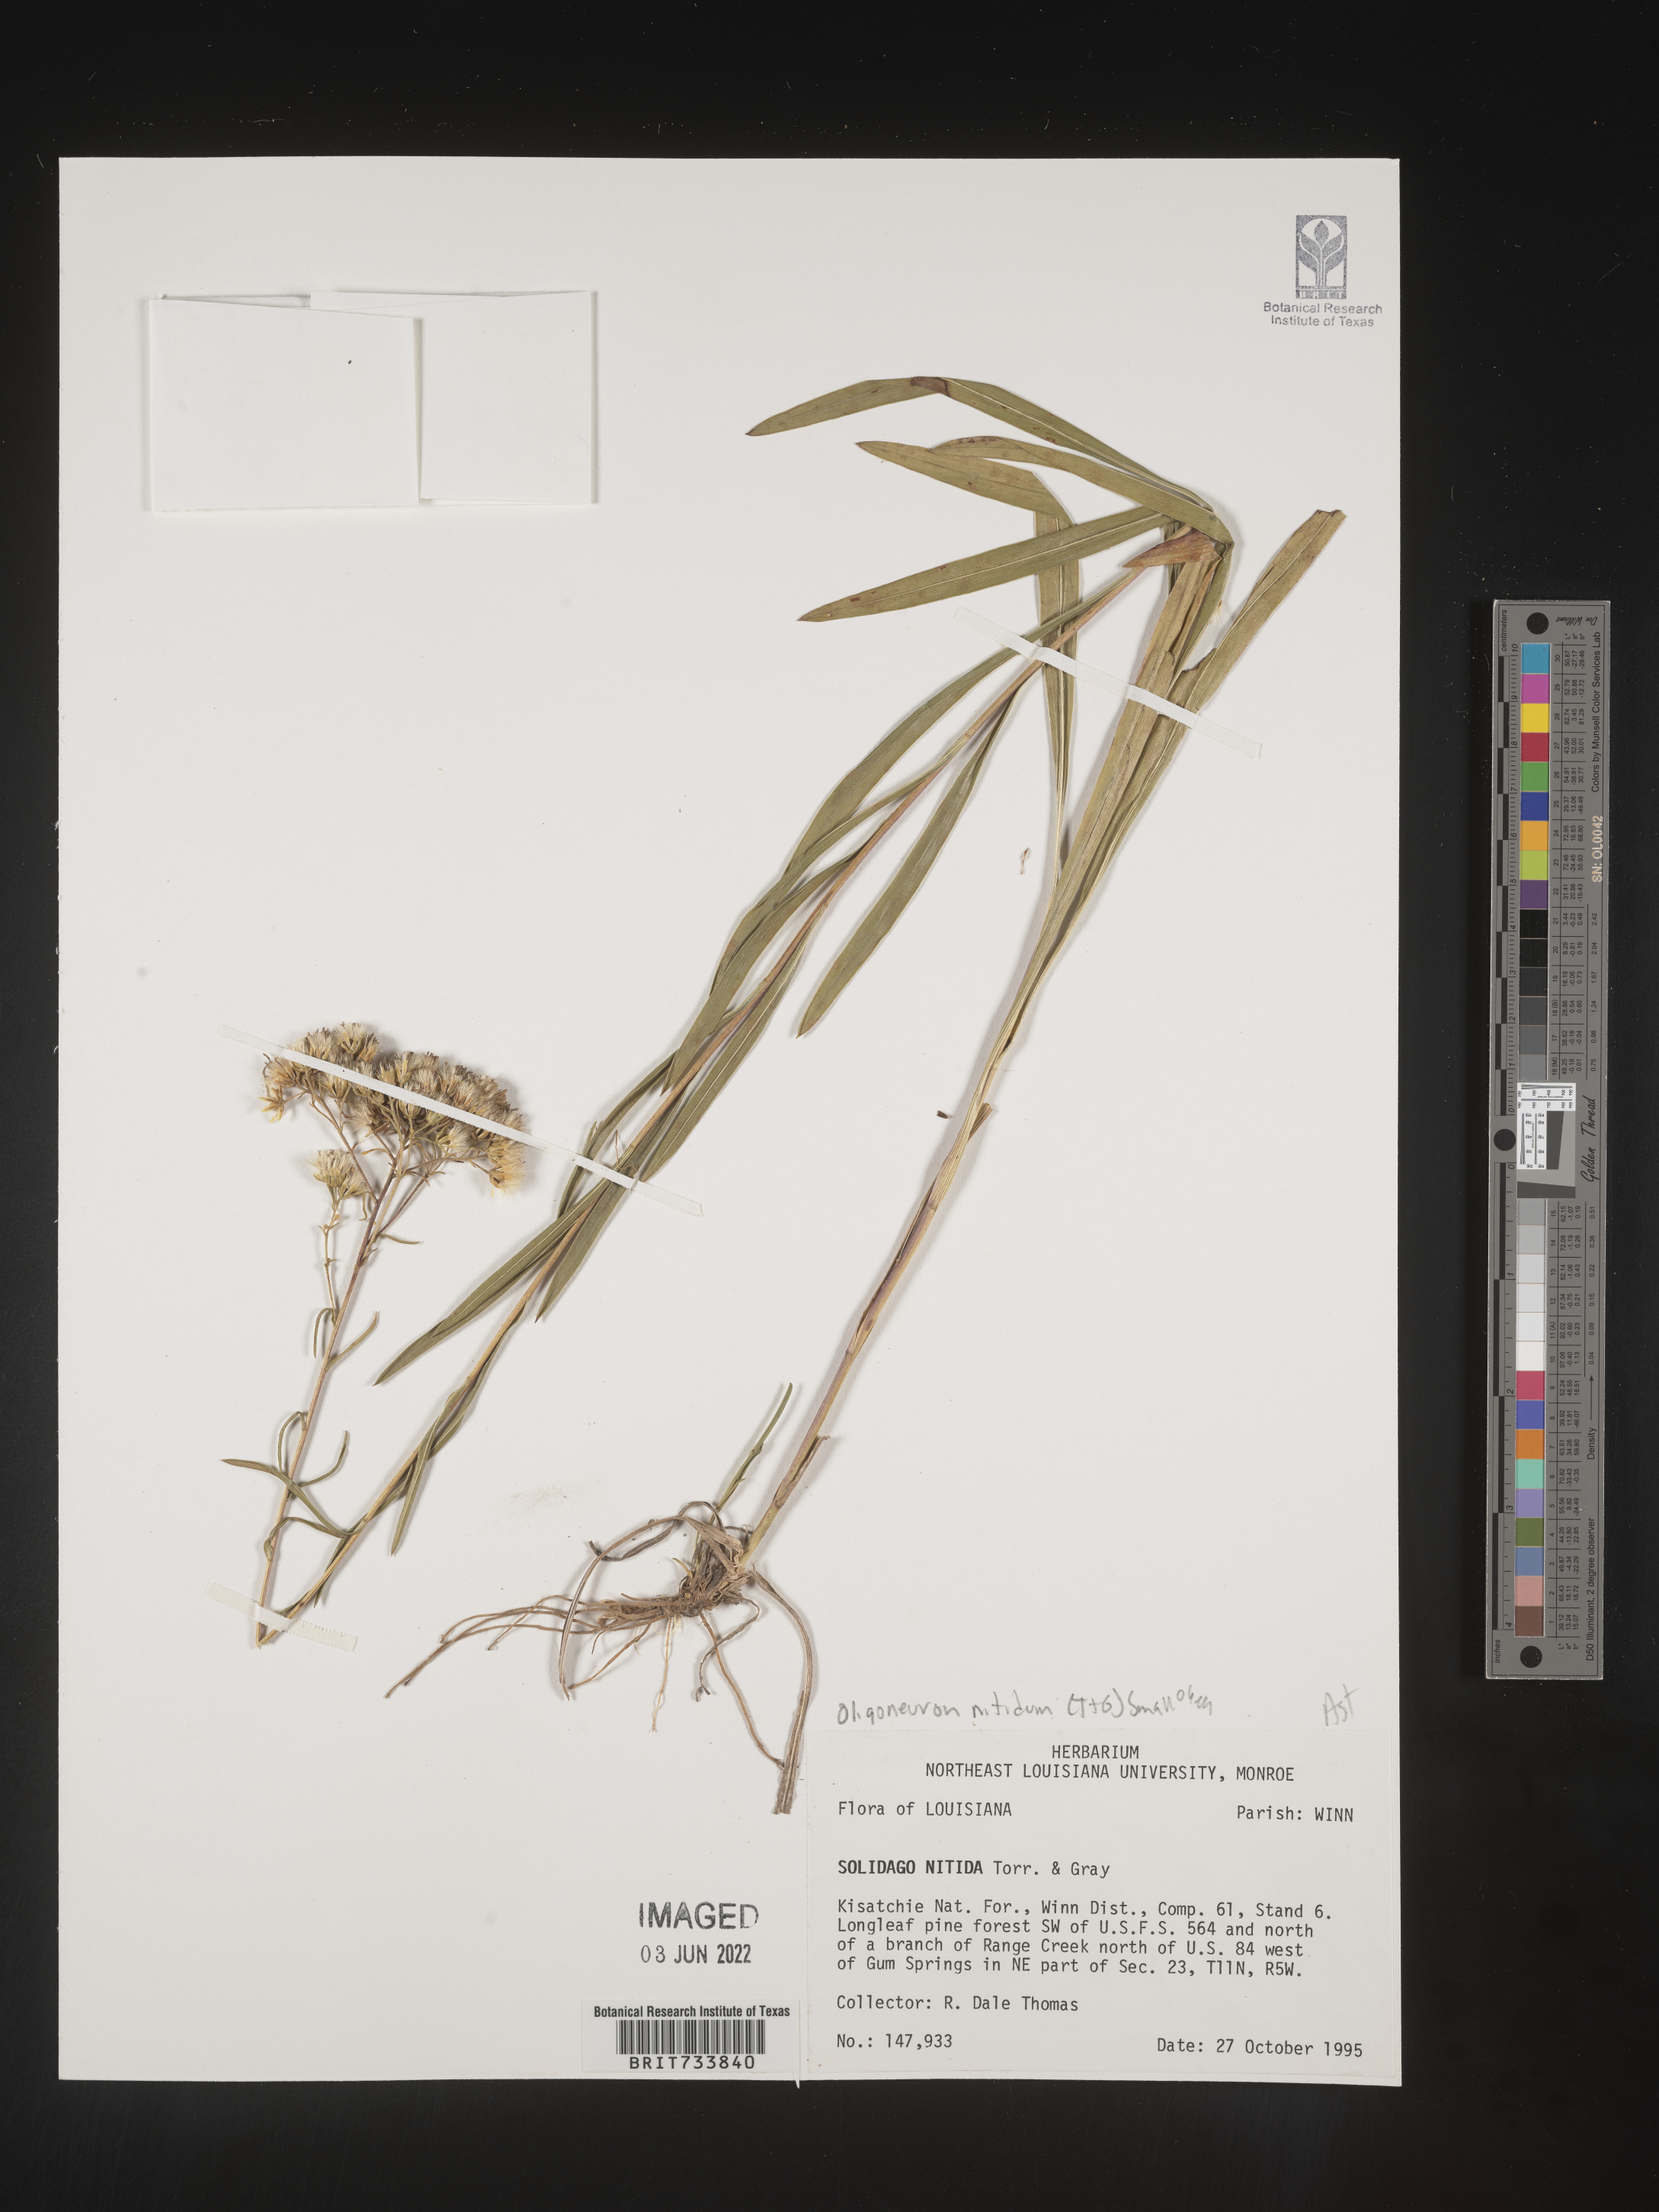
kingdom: Plantae
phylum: Tracheophyta
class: Magnoliopsida
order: Asterales
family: Asteraceae
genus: Solidago
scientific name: Solidago ptarmicoides
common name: White flat-top goldenrod
